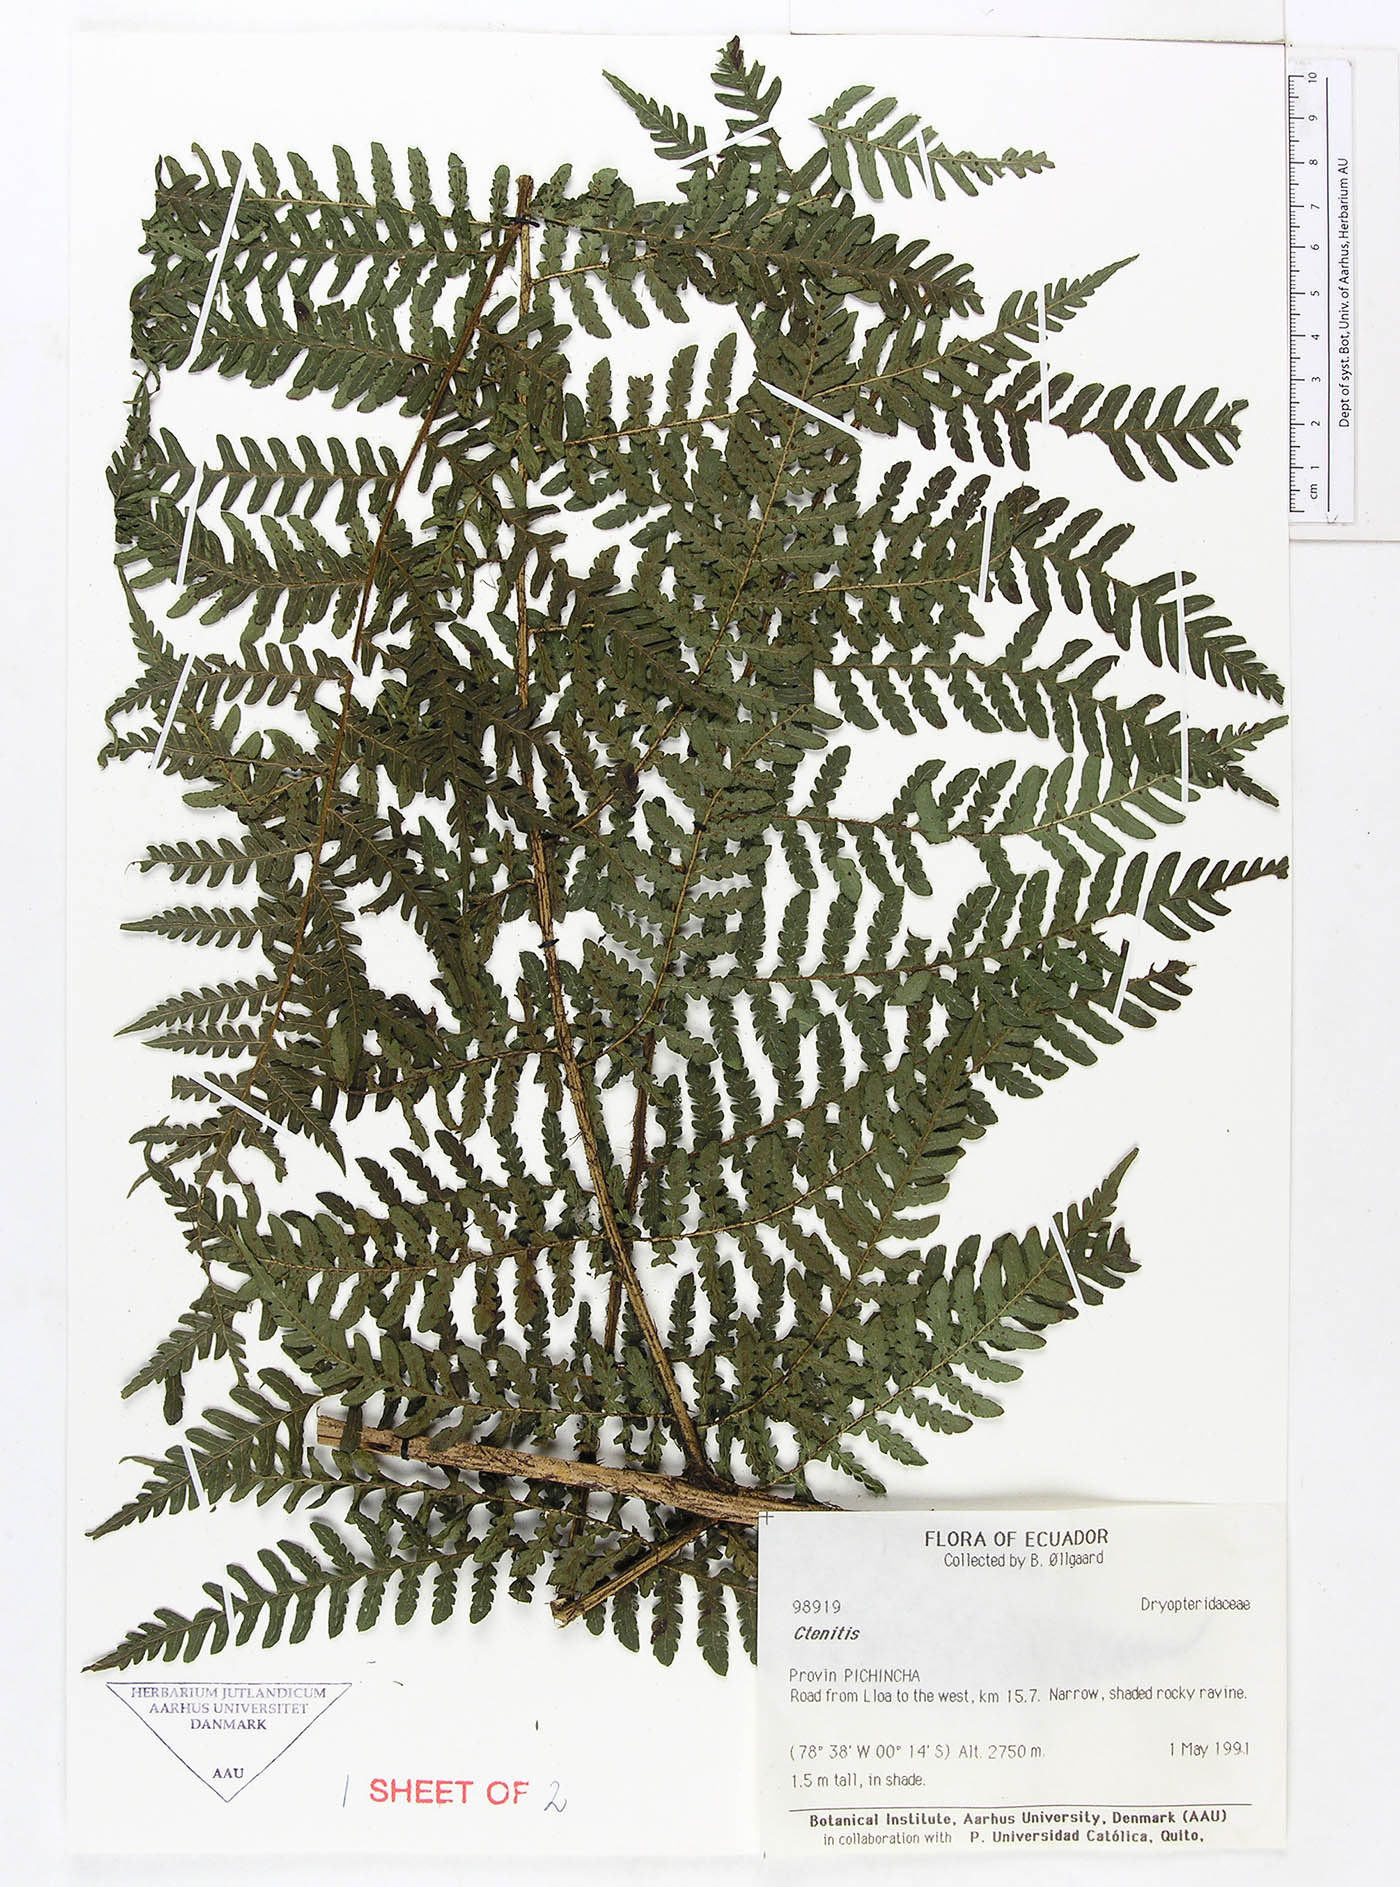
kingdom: Plantae
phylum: Tracheophyta
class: Polypodiopsida
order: Polypodiales
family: Dryopteridaceae
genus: Megalastrum
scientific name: Megalastrum alticola
